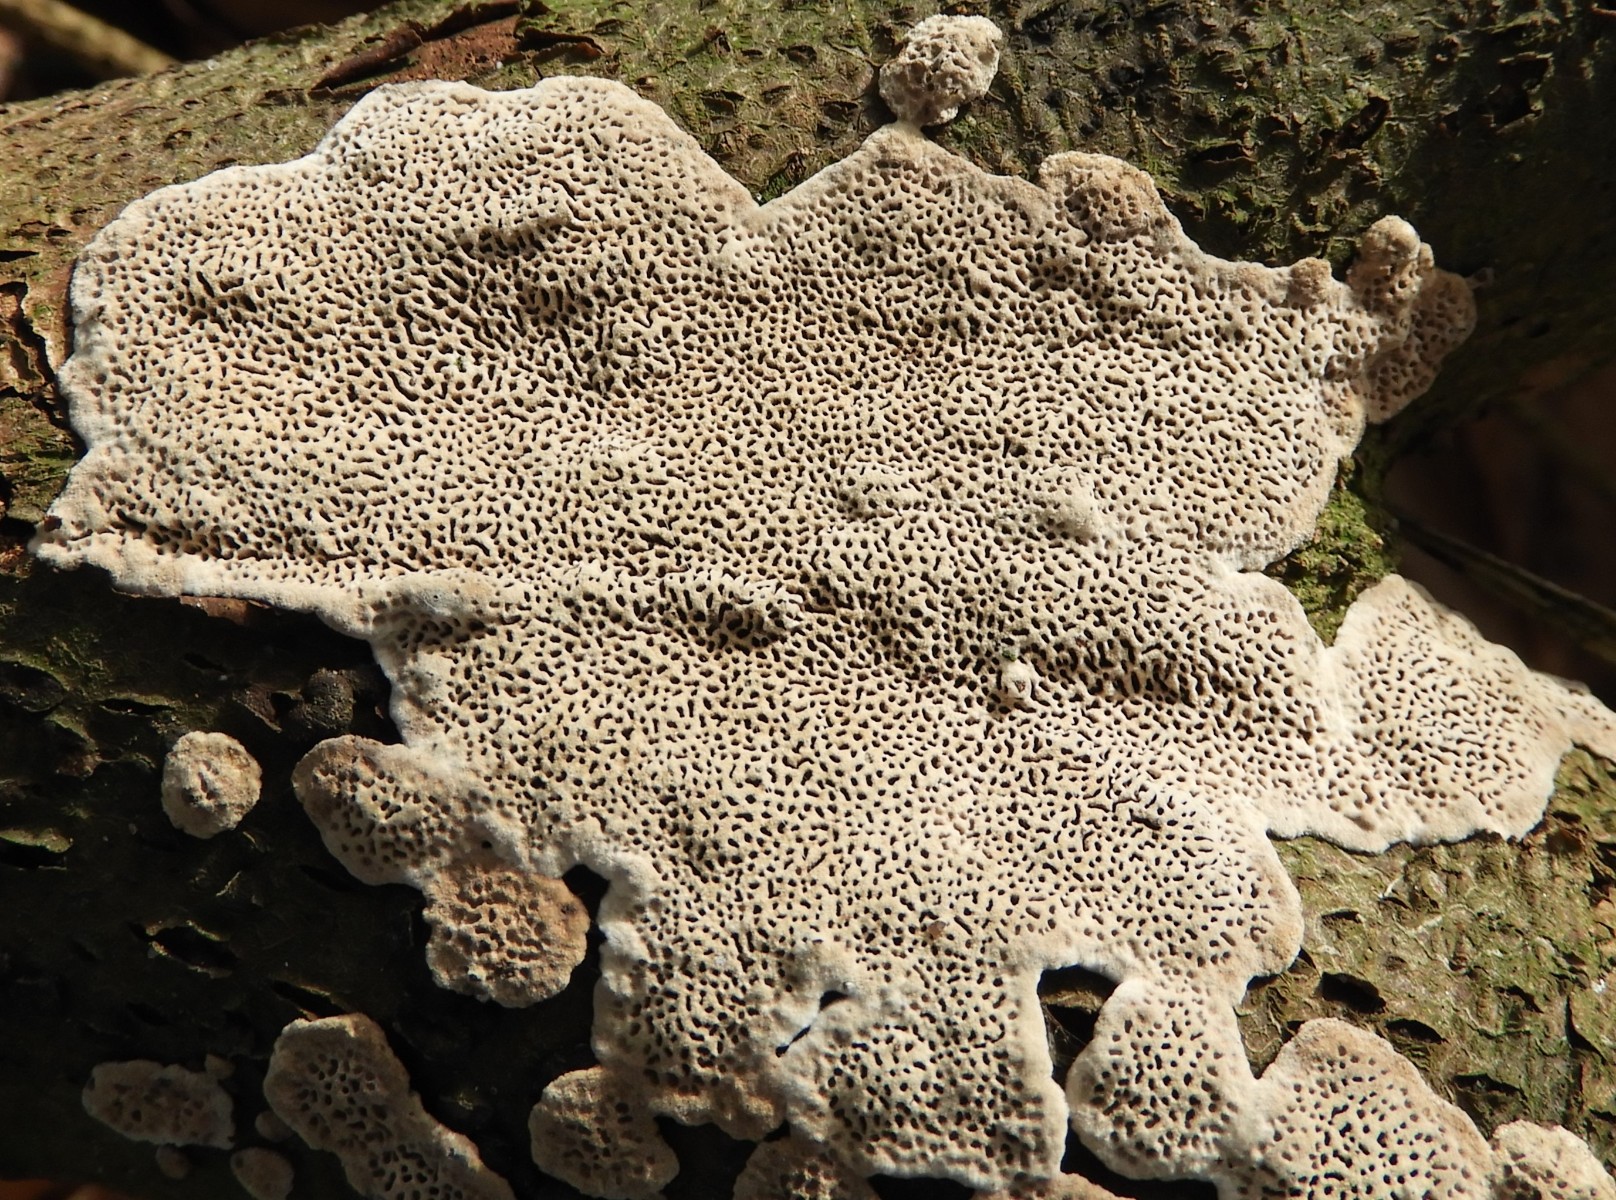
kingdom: Fungi
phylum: Basidiomycota
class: Agaricomycetes
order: Polyporales
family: Polyporaceae
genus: Podofomes
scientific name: Podofomes mollis
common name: blød begporesvamp
